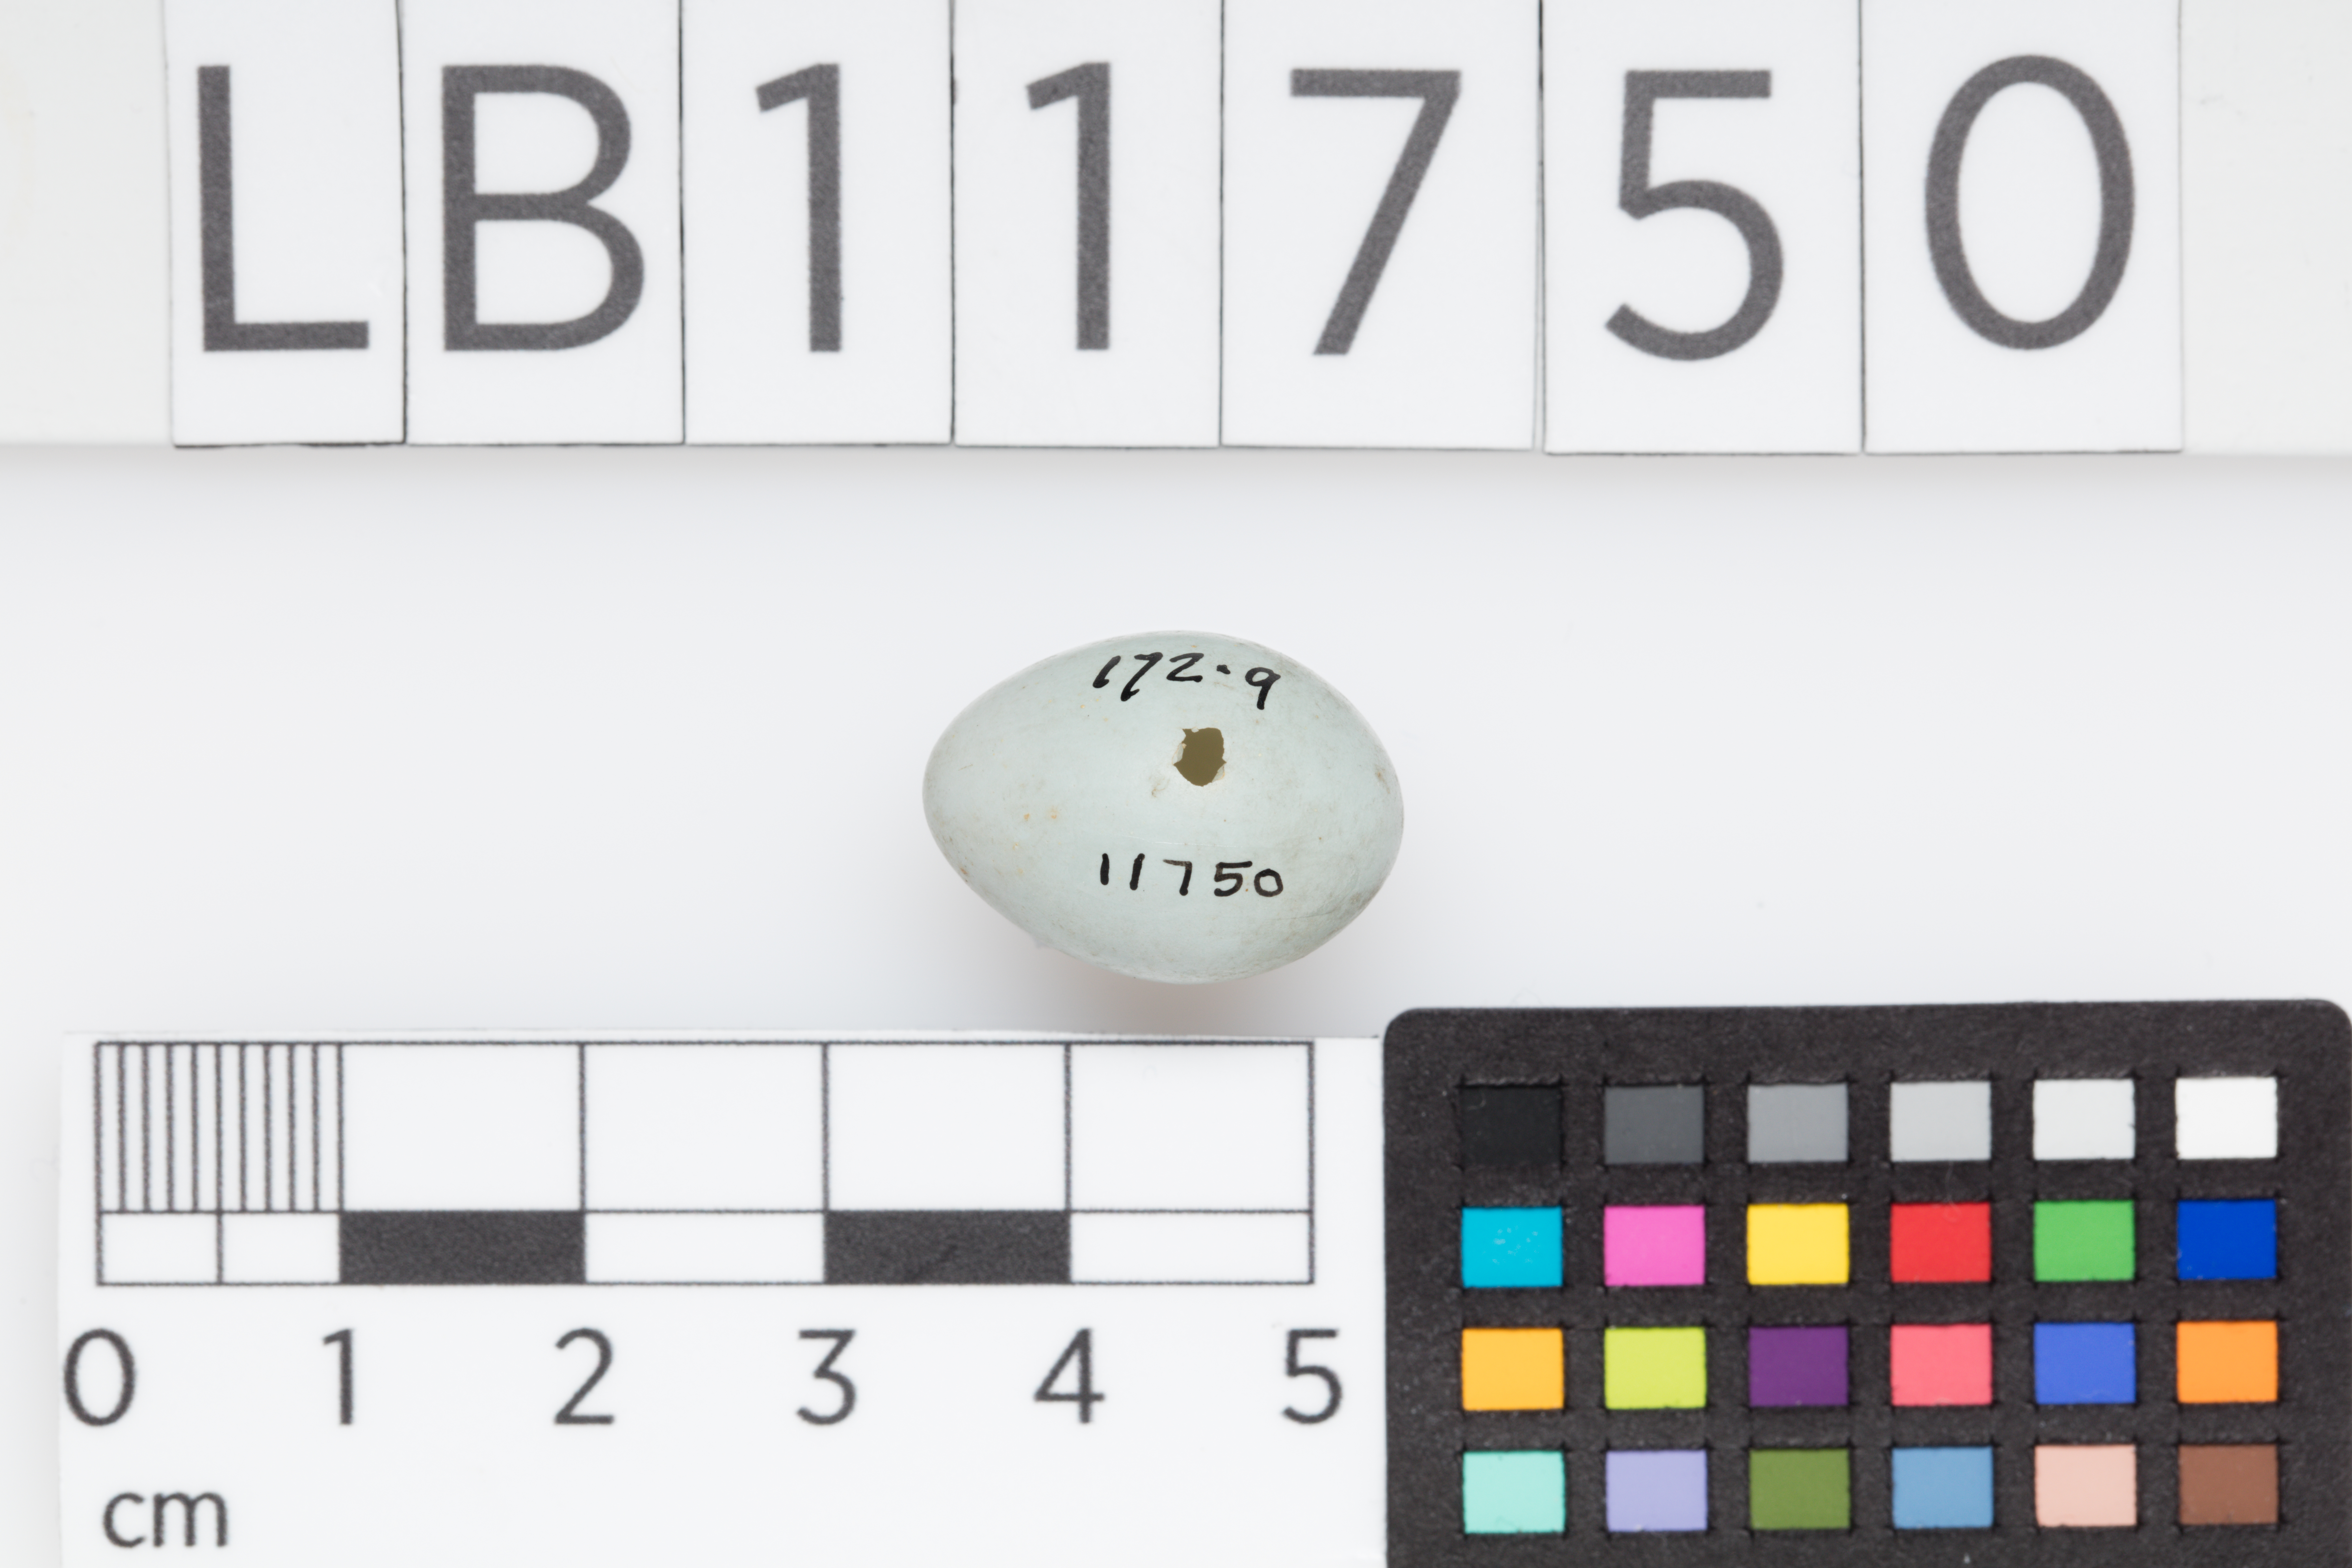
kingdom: Animalia
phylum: Chordata
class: Aves
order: Passeriformes
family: Prunellidae
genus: Prunella
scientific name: Prunella modularis
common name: Dunnock
